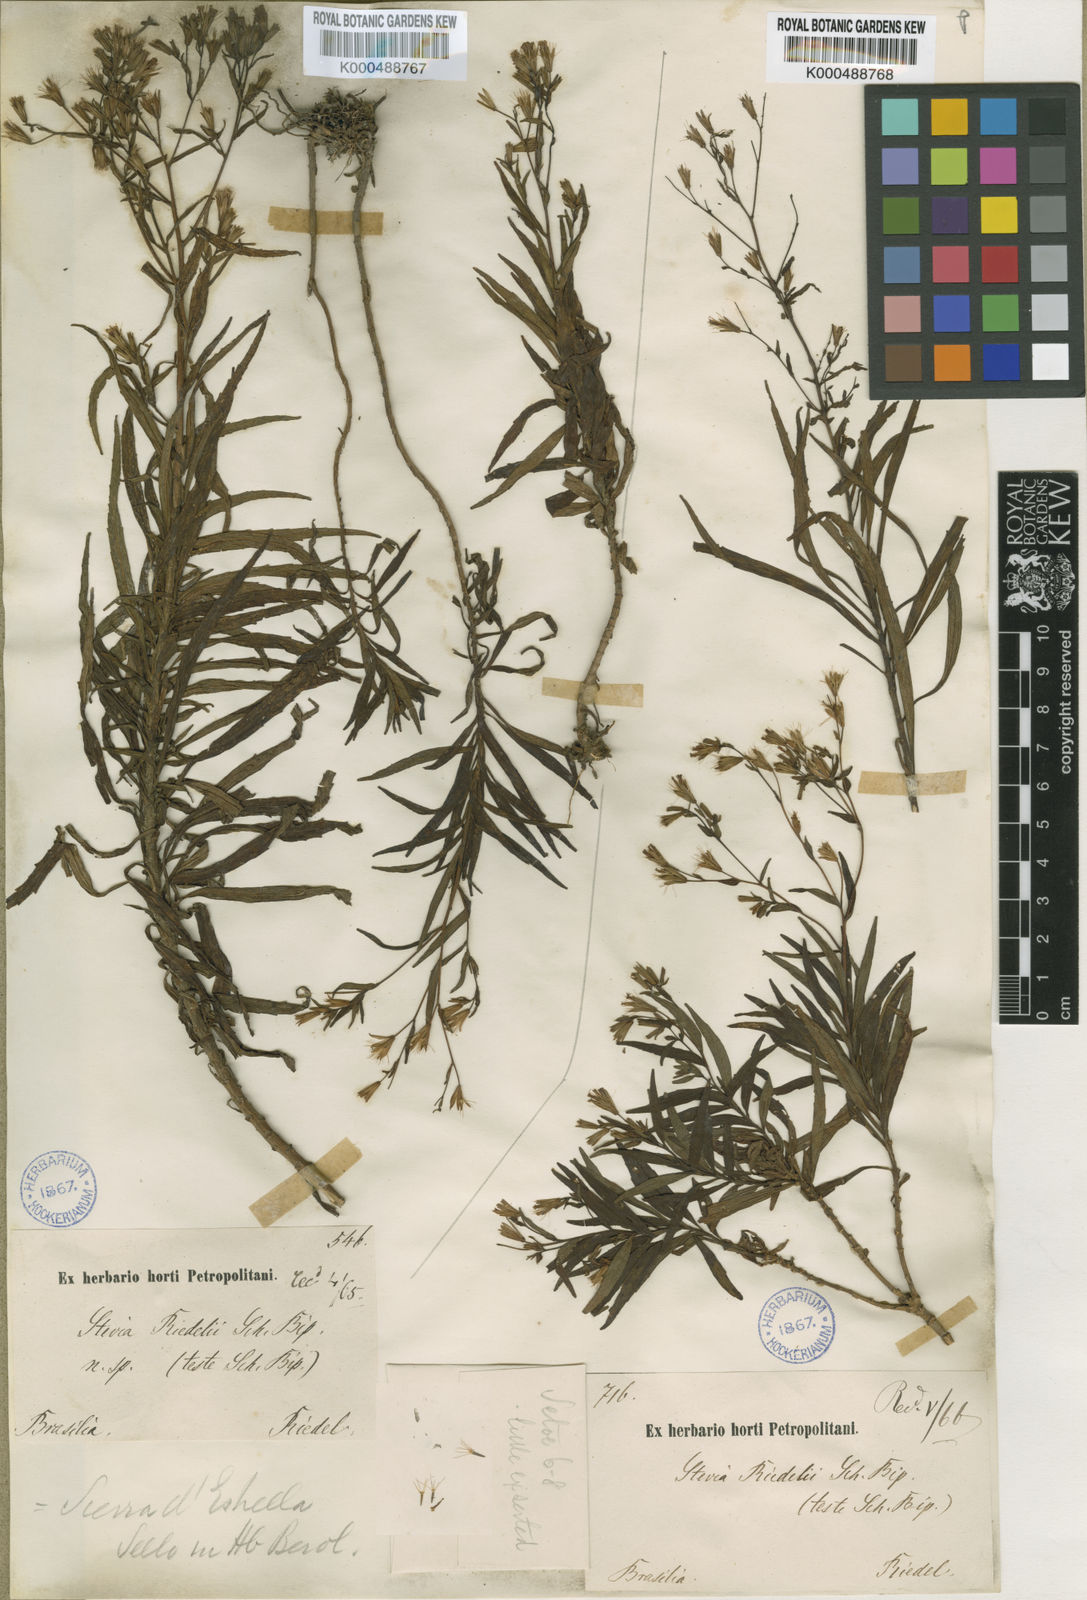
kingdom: Plantae
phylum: Tracheophyta
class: Magnoliopsida
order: Asterales
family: Asteraceae
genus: Stevia
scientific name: Stevia riedelii
